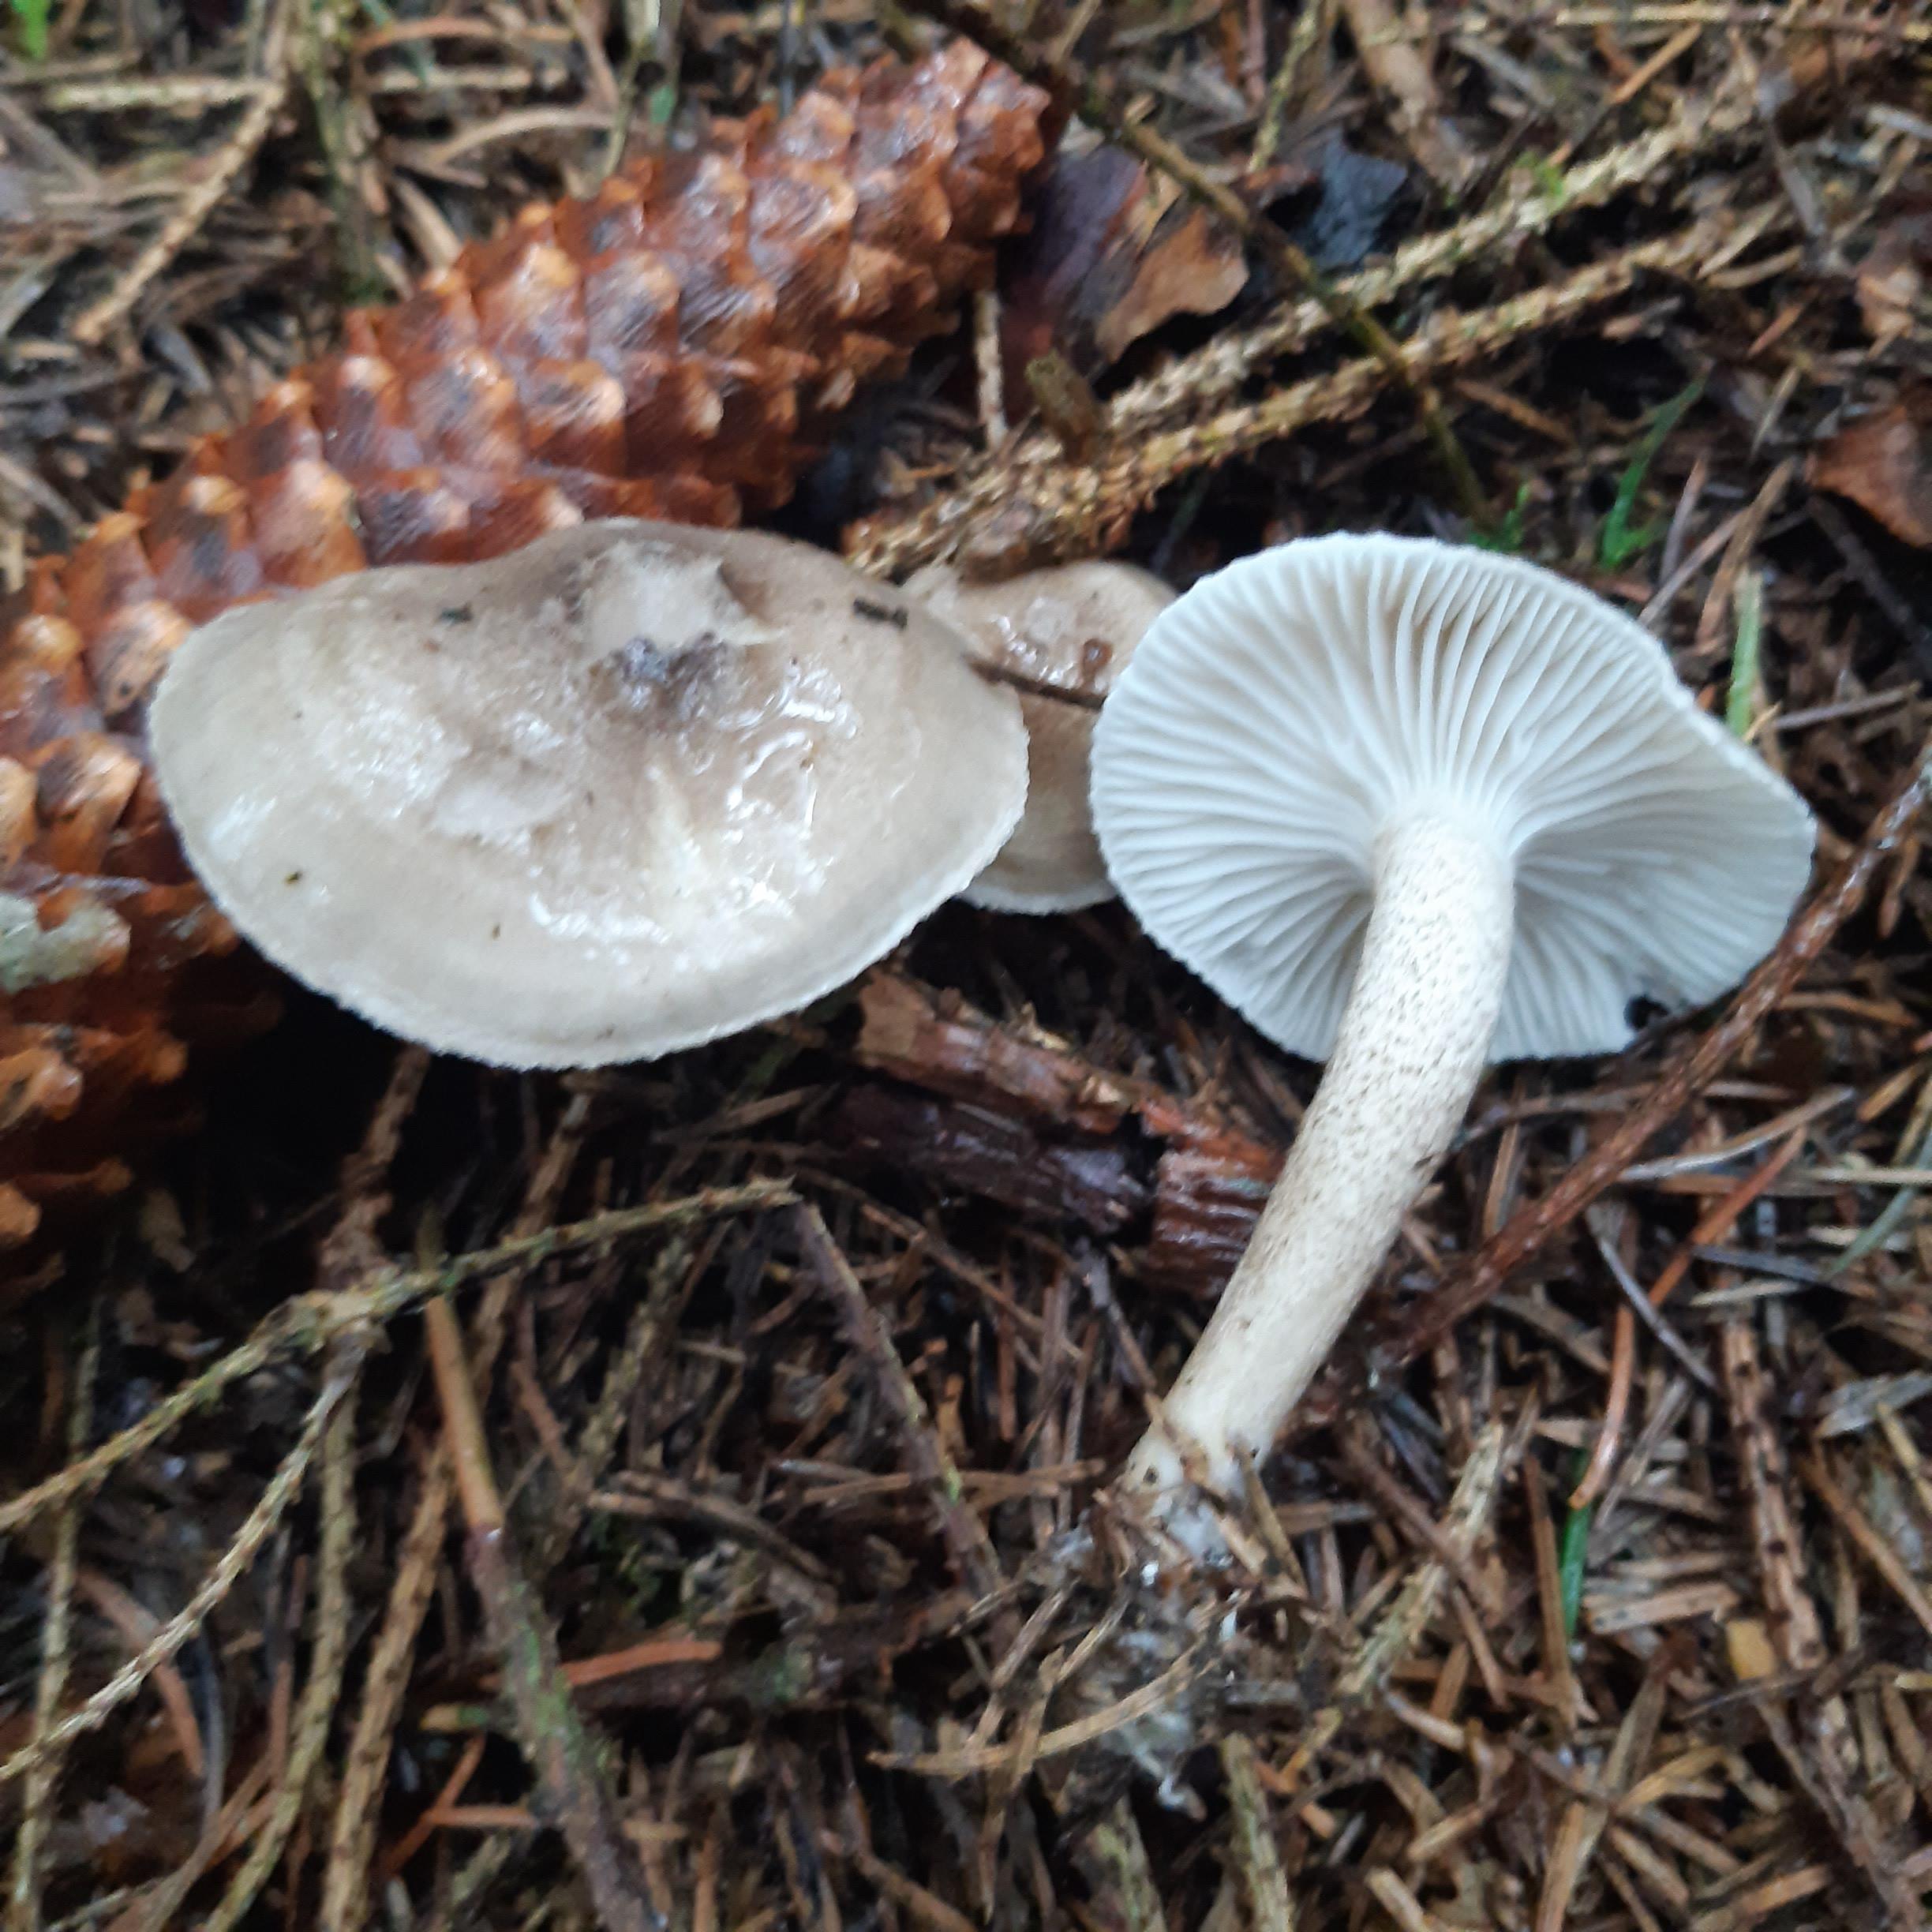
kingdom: Fungi
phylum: Basidiomycota
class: Agaricomycetes
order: Agaricales
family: Hygrophoraceae
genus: Hygrophorus
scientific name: Hygrophorus pustulatus
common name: mørkprikket sneglehat
